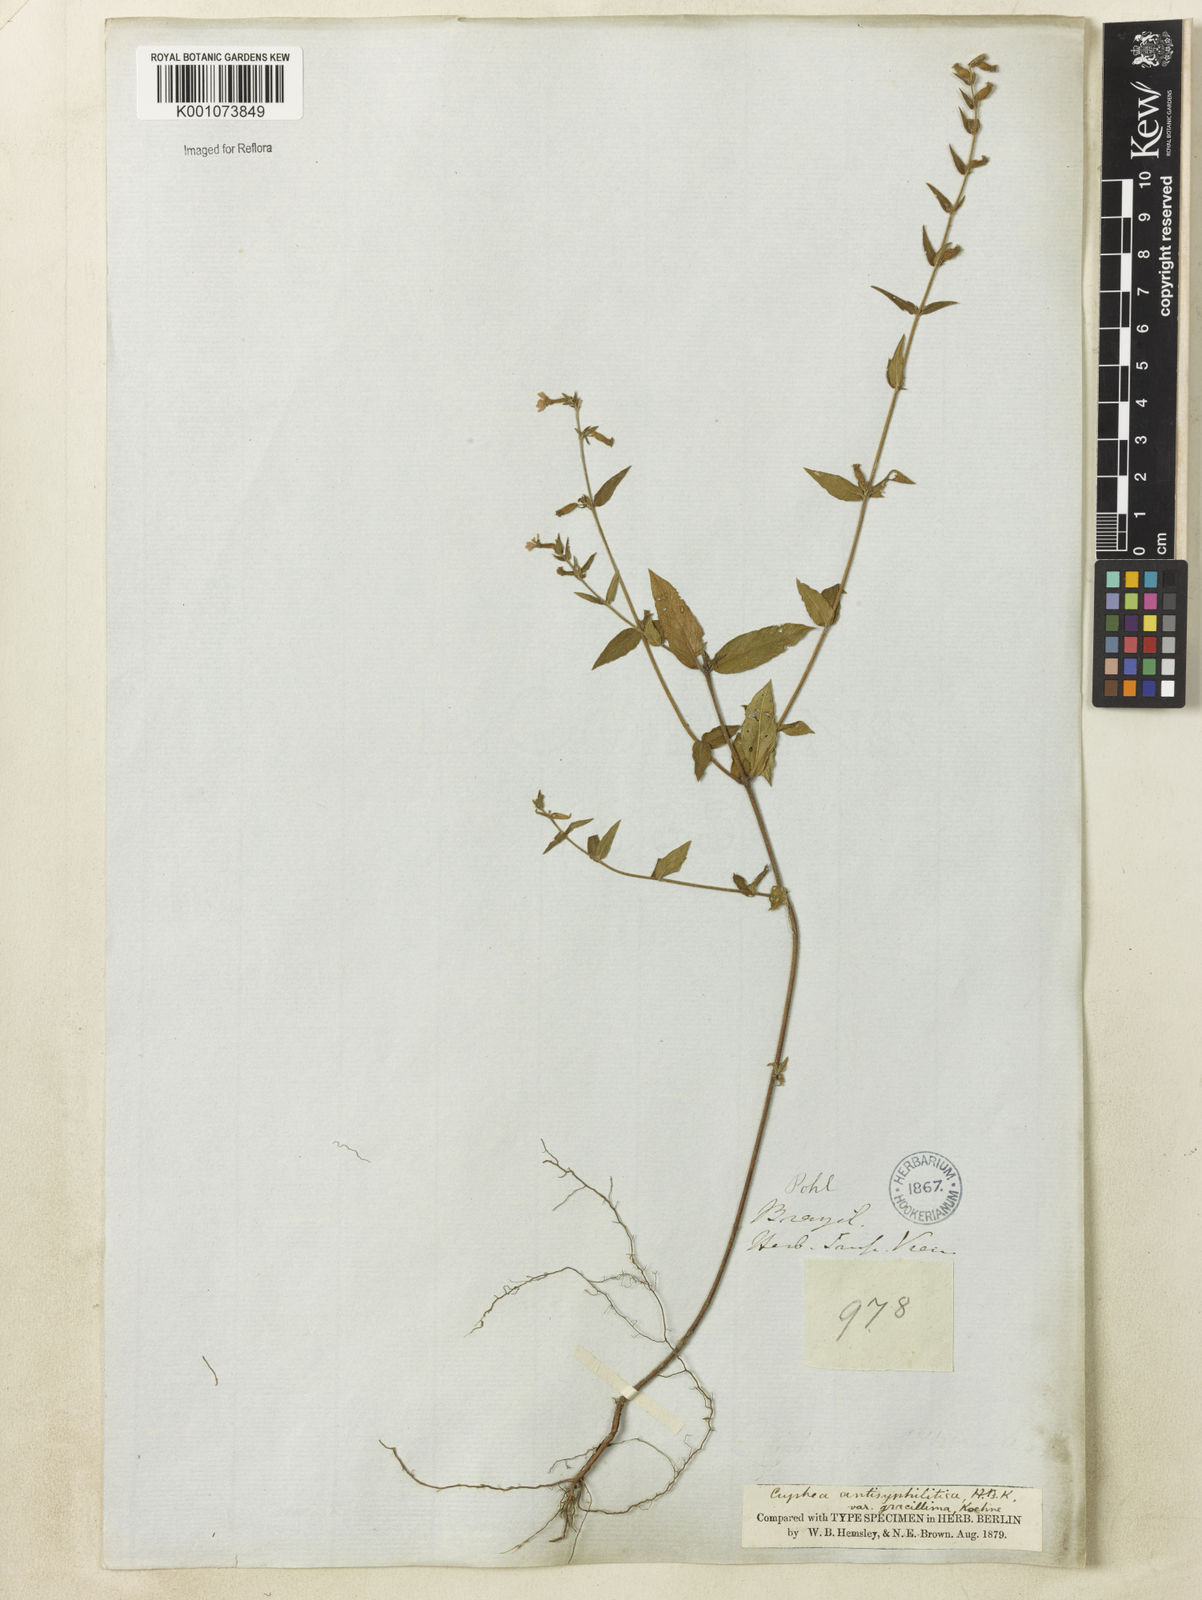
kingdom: Plantae
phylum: Tracheophyta
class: Magnoliopsida
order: Myrtales
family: Lythraceae
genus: Cuphea
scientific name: Cuphea antisyphilitica
